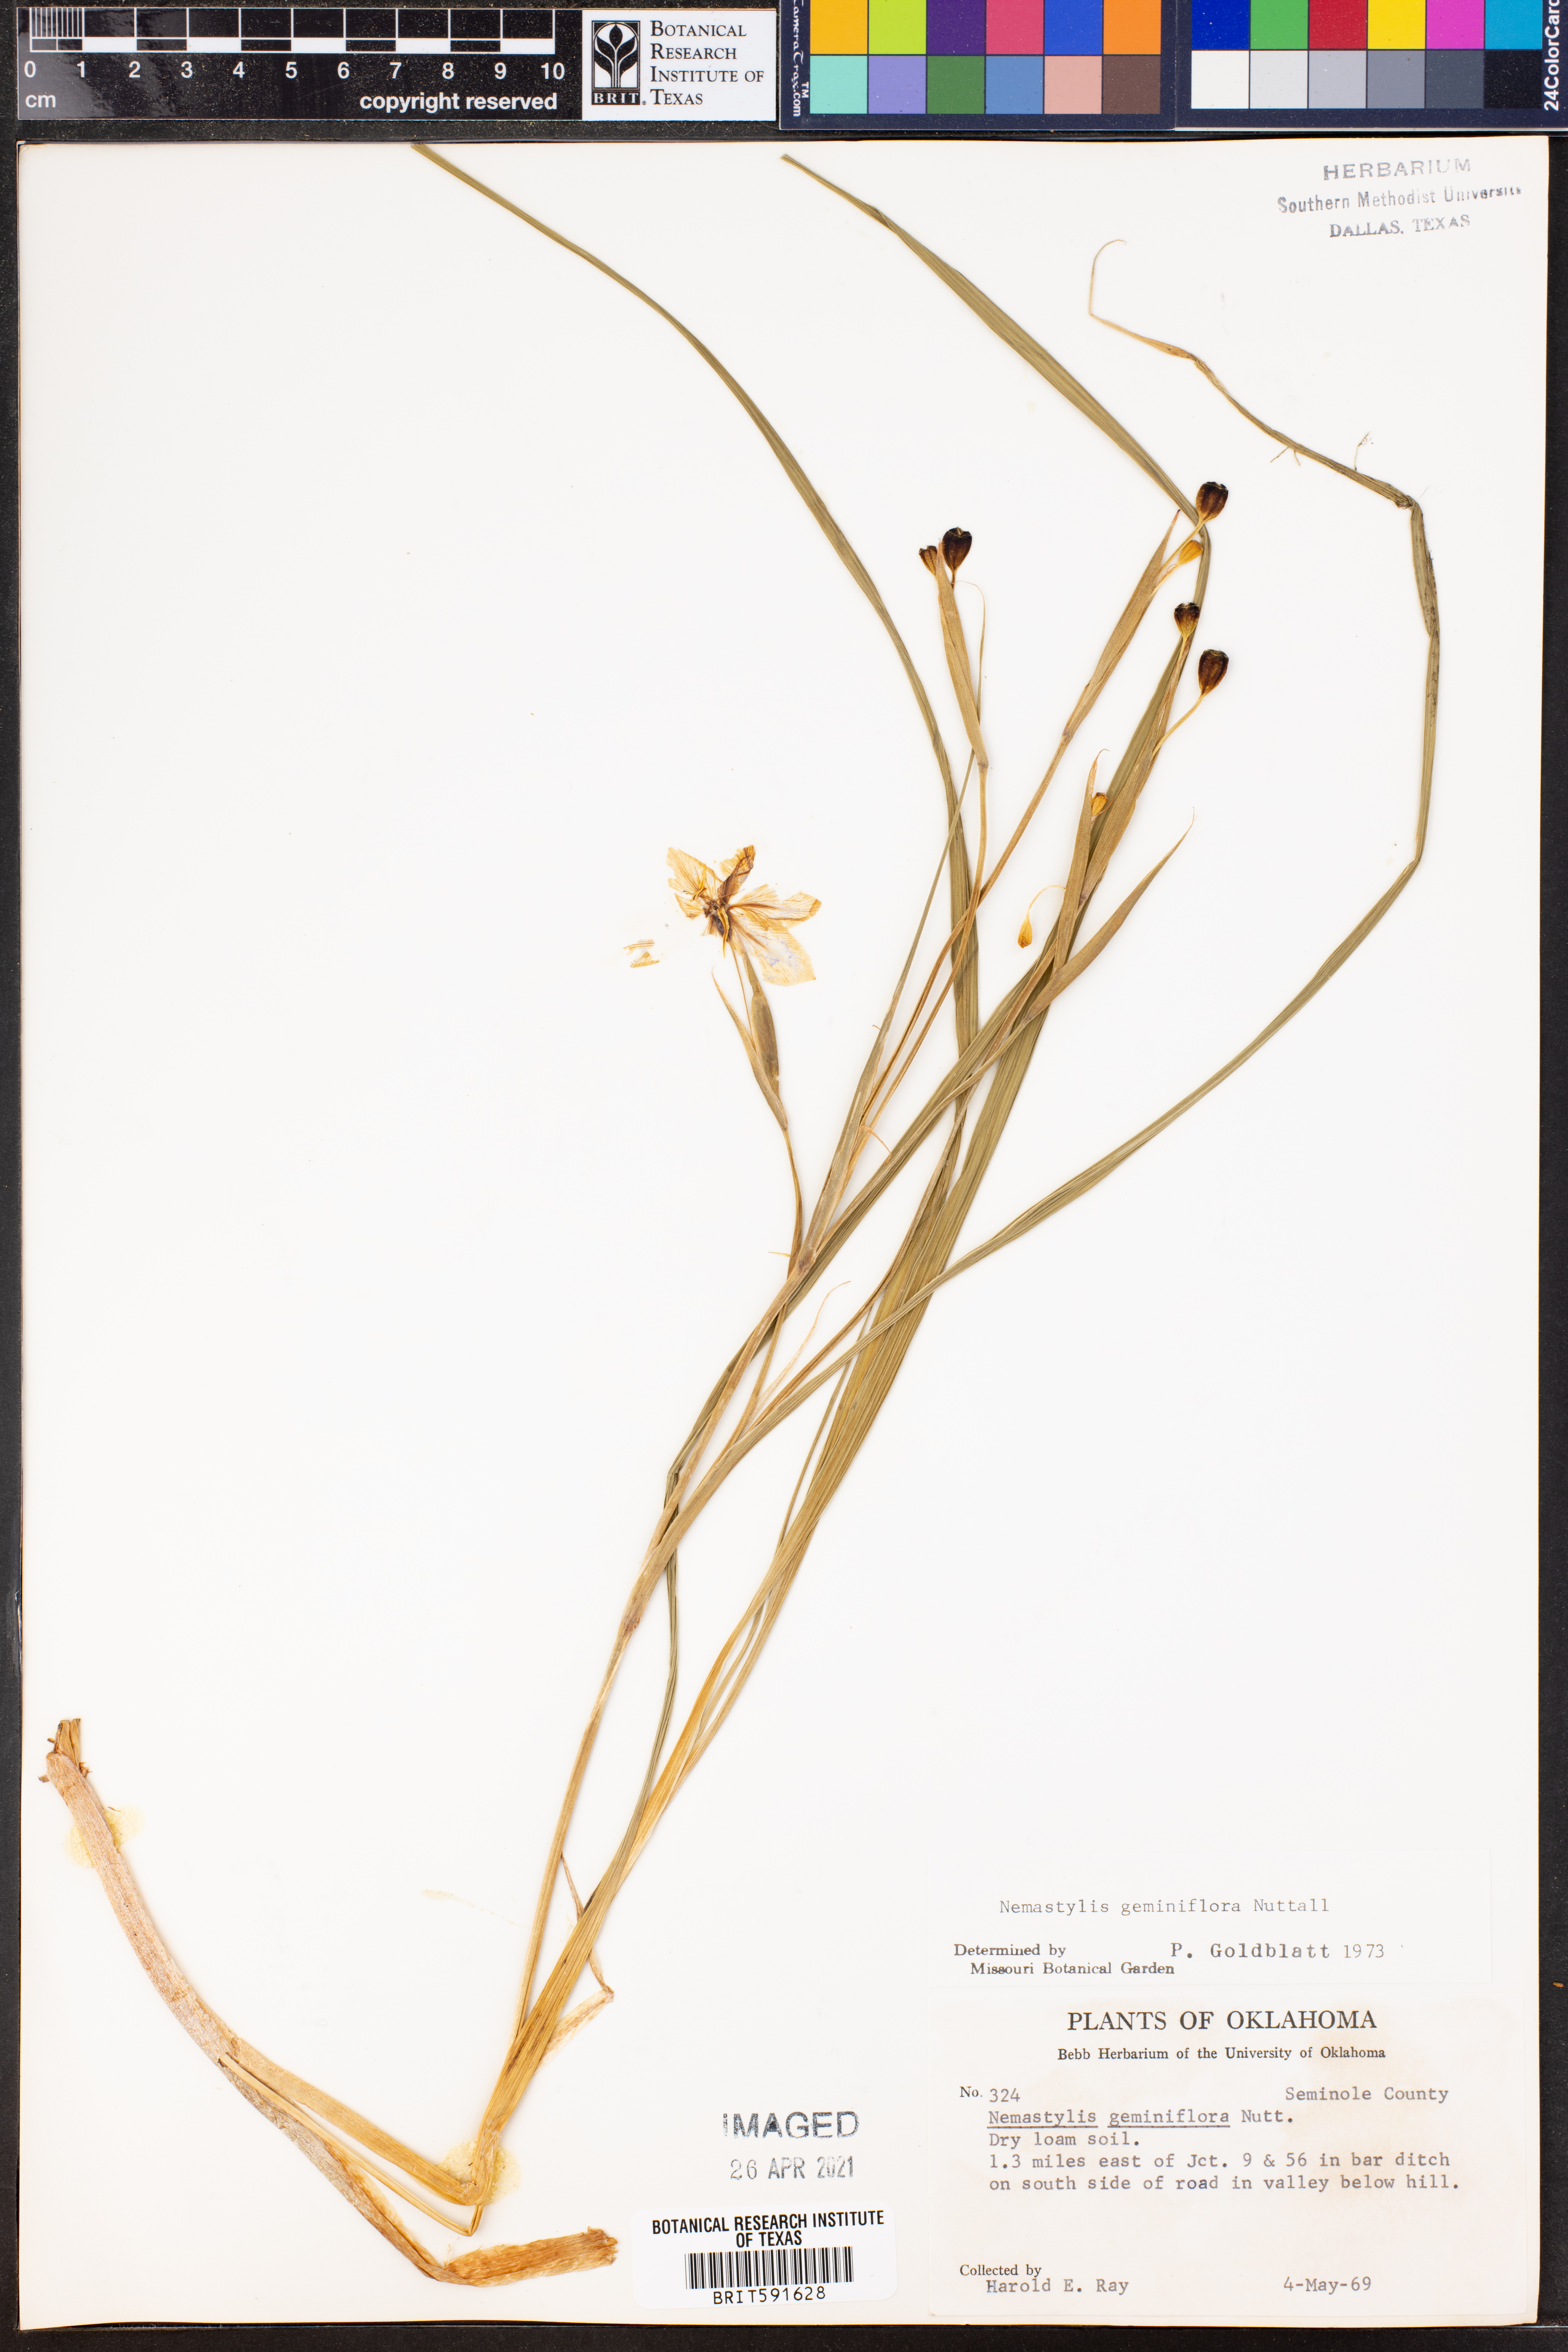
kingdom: Plantae
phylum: Tracheophyta
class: Liliopsida
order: Asparagales
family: Iridaceae
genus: Nemastylis
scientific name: Nemastylis geminiflora
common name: Prairie celestial
